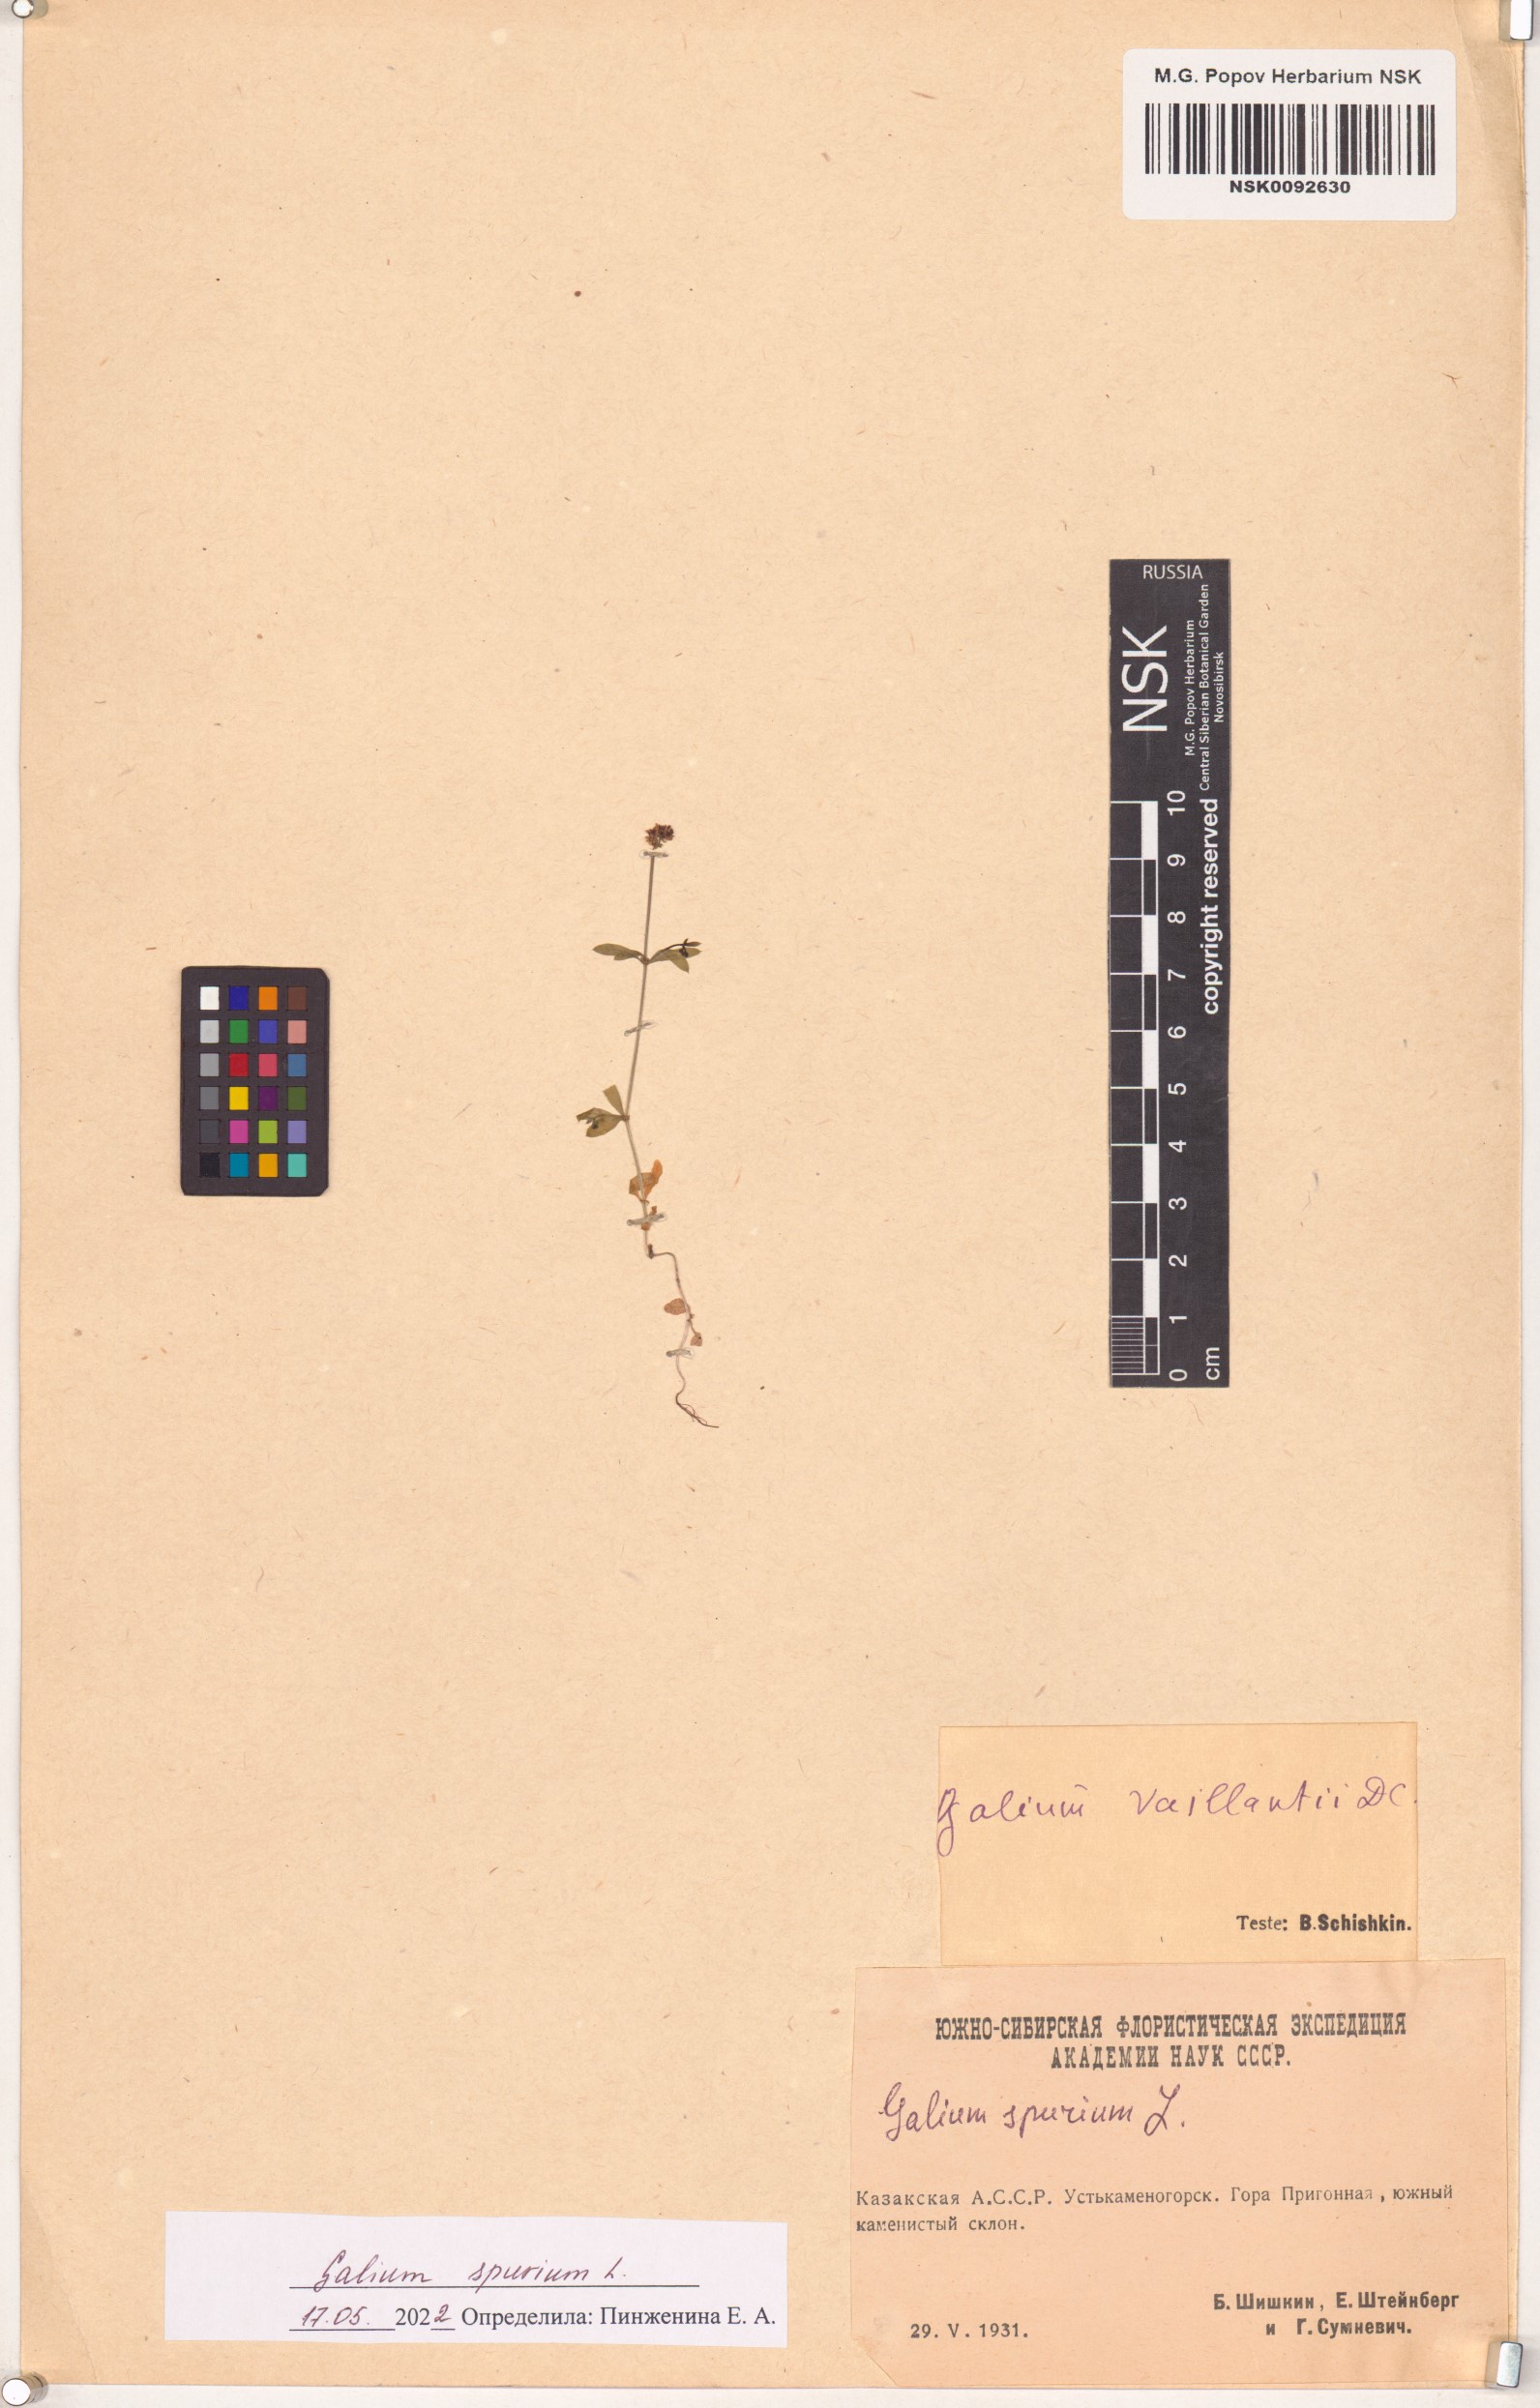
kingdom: Plantae
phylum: Tracheophyta
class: Magnoliopsida
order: Gentianales
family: Rubiaceae
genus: Galium
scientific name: Galium spurium
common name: False cleavers
